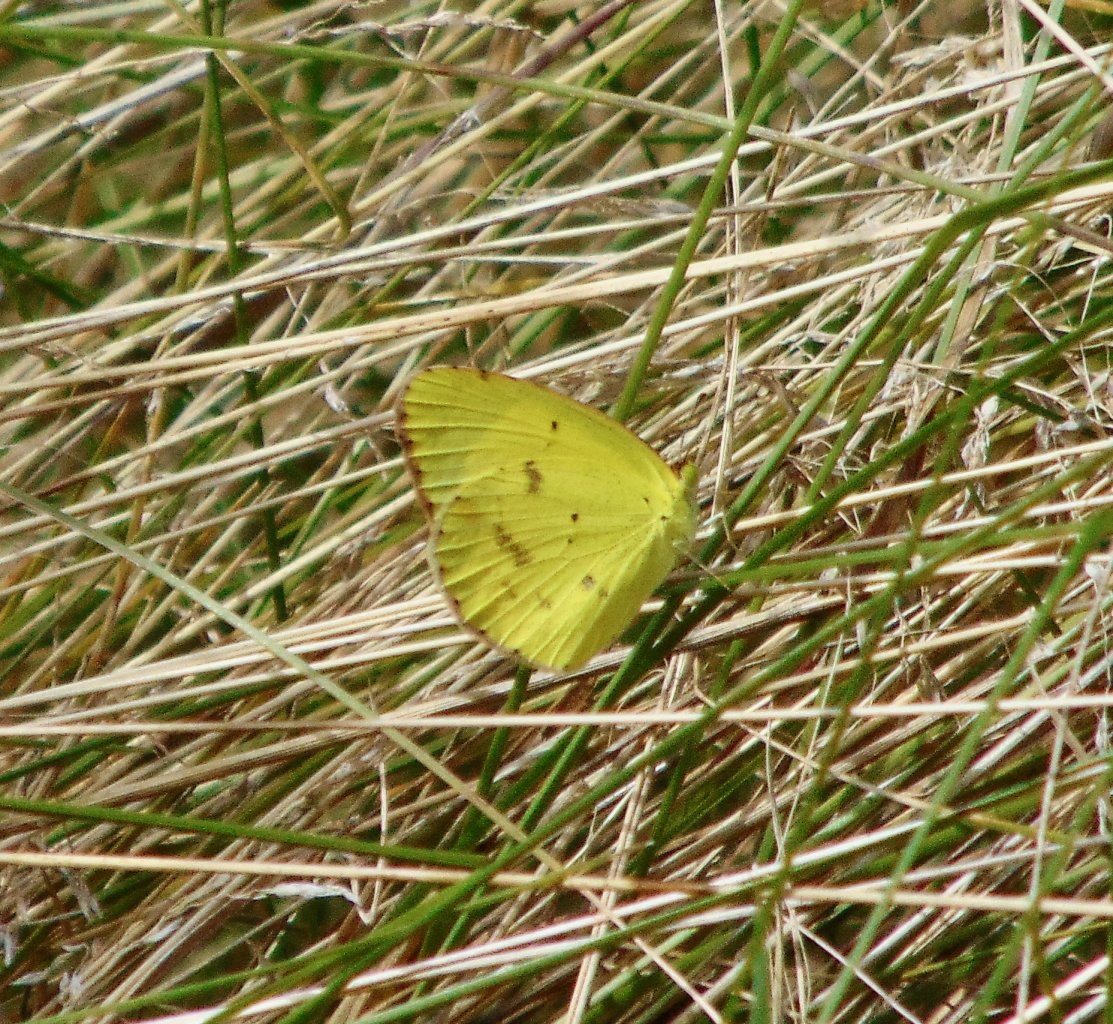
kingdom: Animalia
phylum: Arthropoda
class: Insecta
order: Lepidoptera
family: Pieridae
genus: Pyrisitia
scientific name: Pyrisitia lisa
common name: Little Yellow
